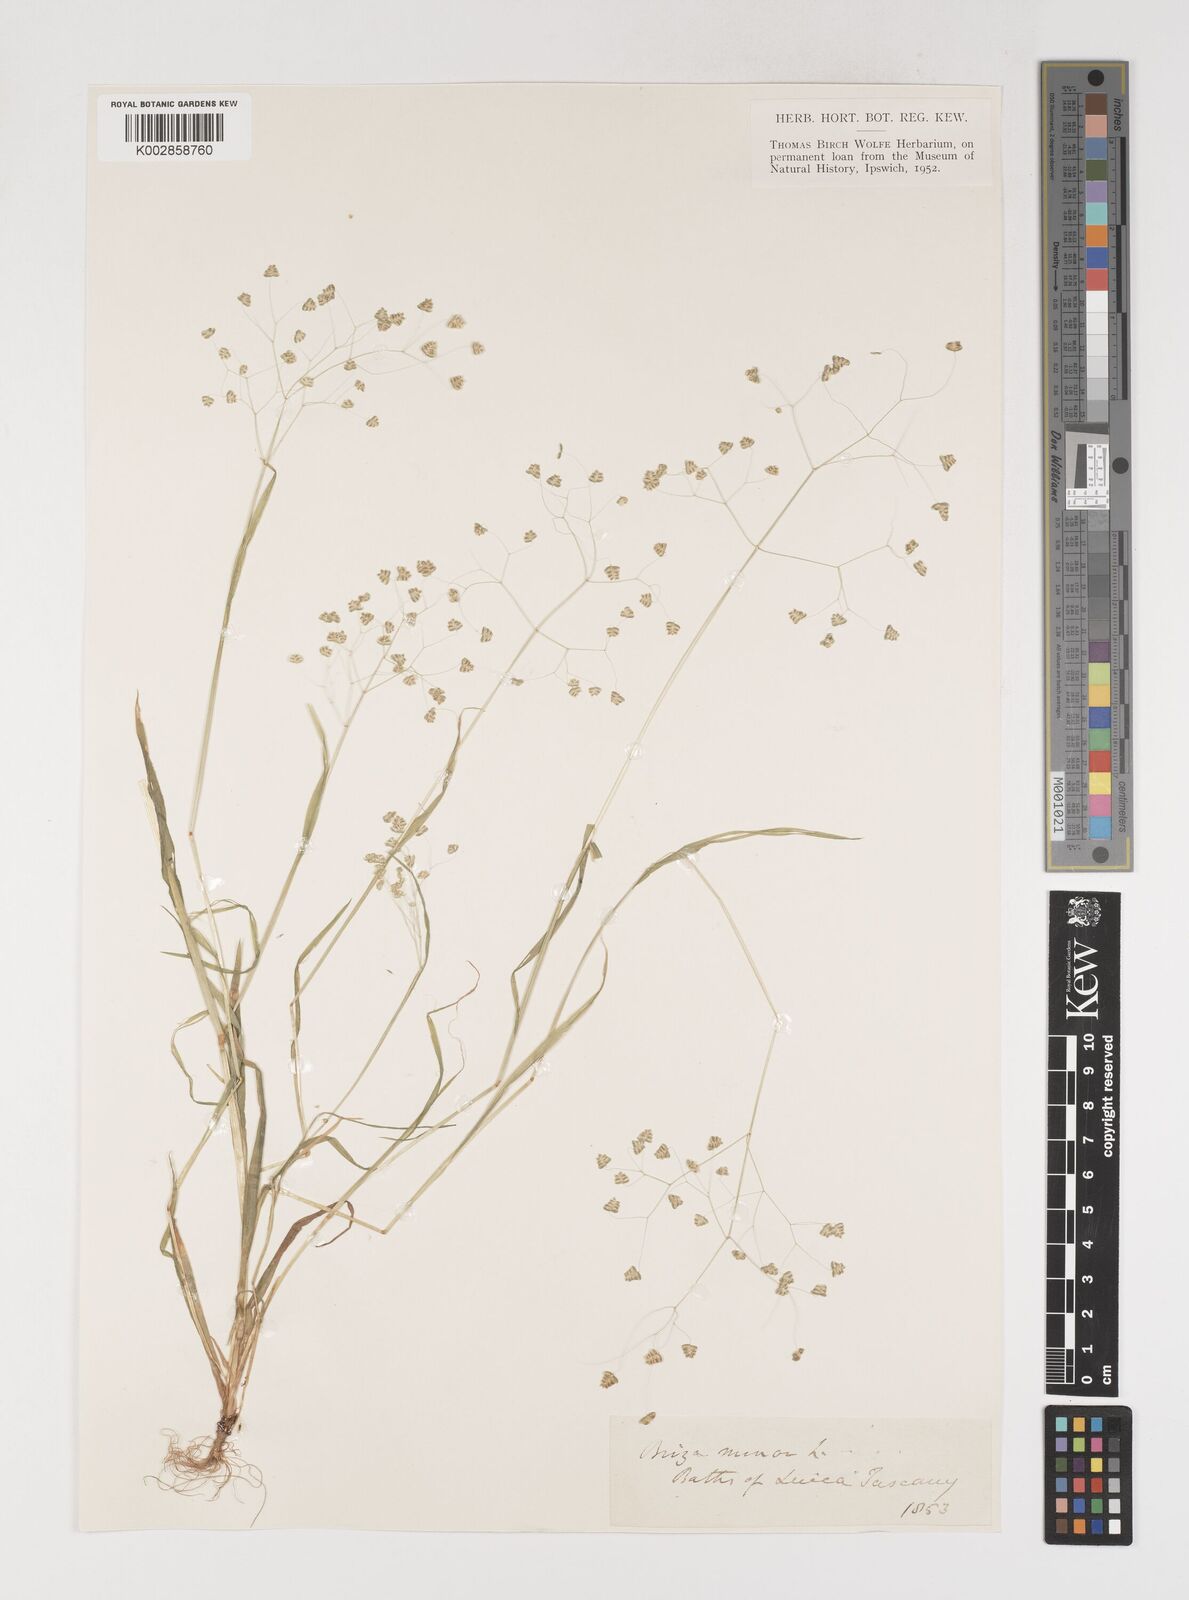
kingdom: Plantae
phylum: Tracheophyta
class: Liliopsida
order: Poales
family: Poaceae
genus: Briza
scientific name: Briza minor
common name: Lesser quaking-grass
